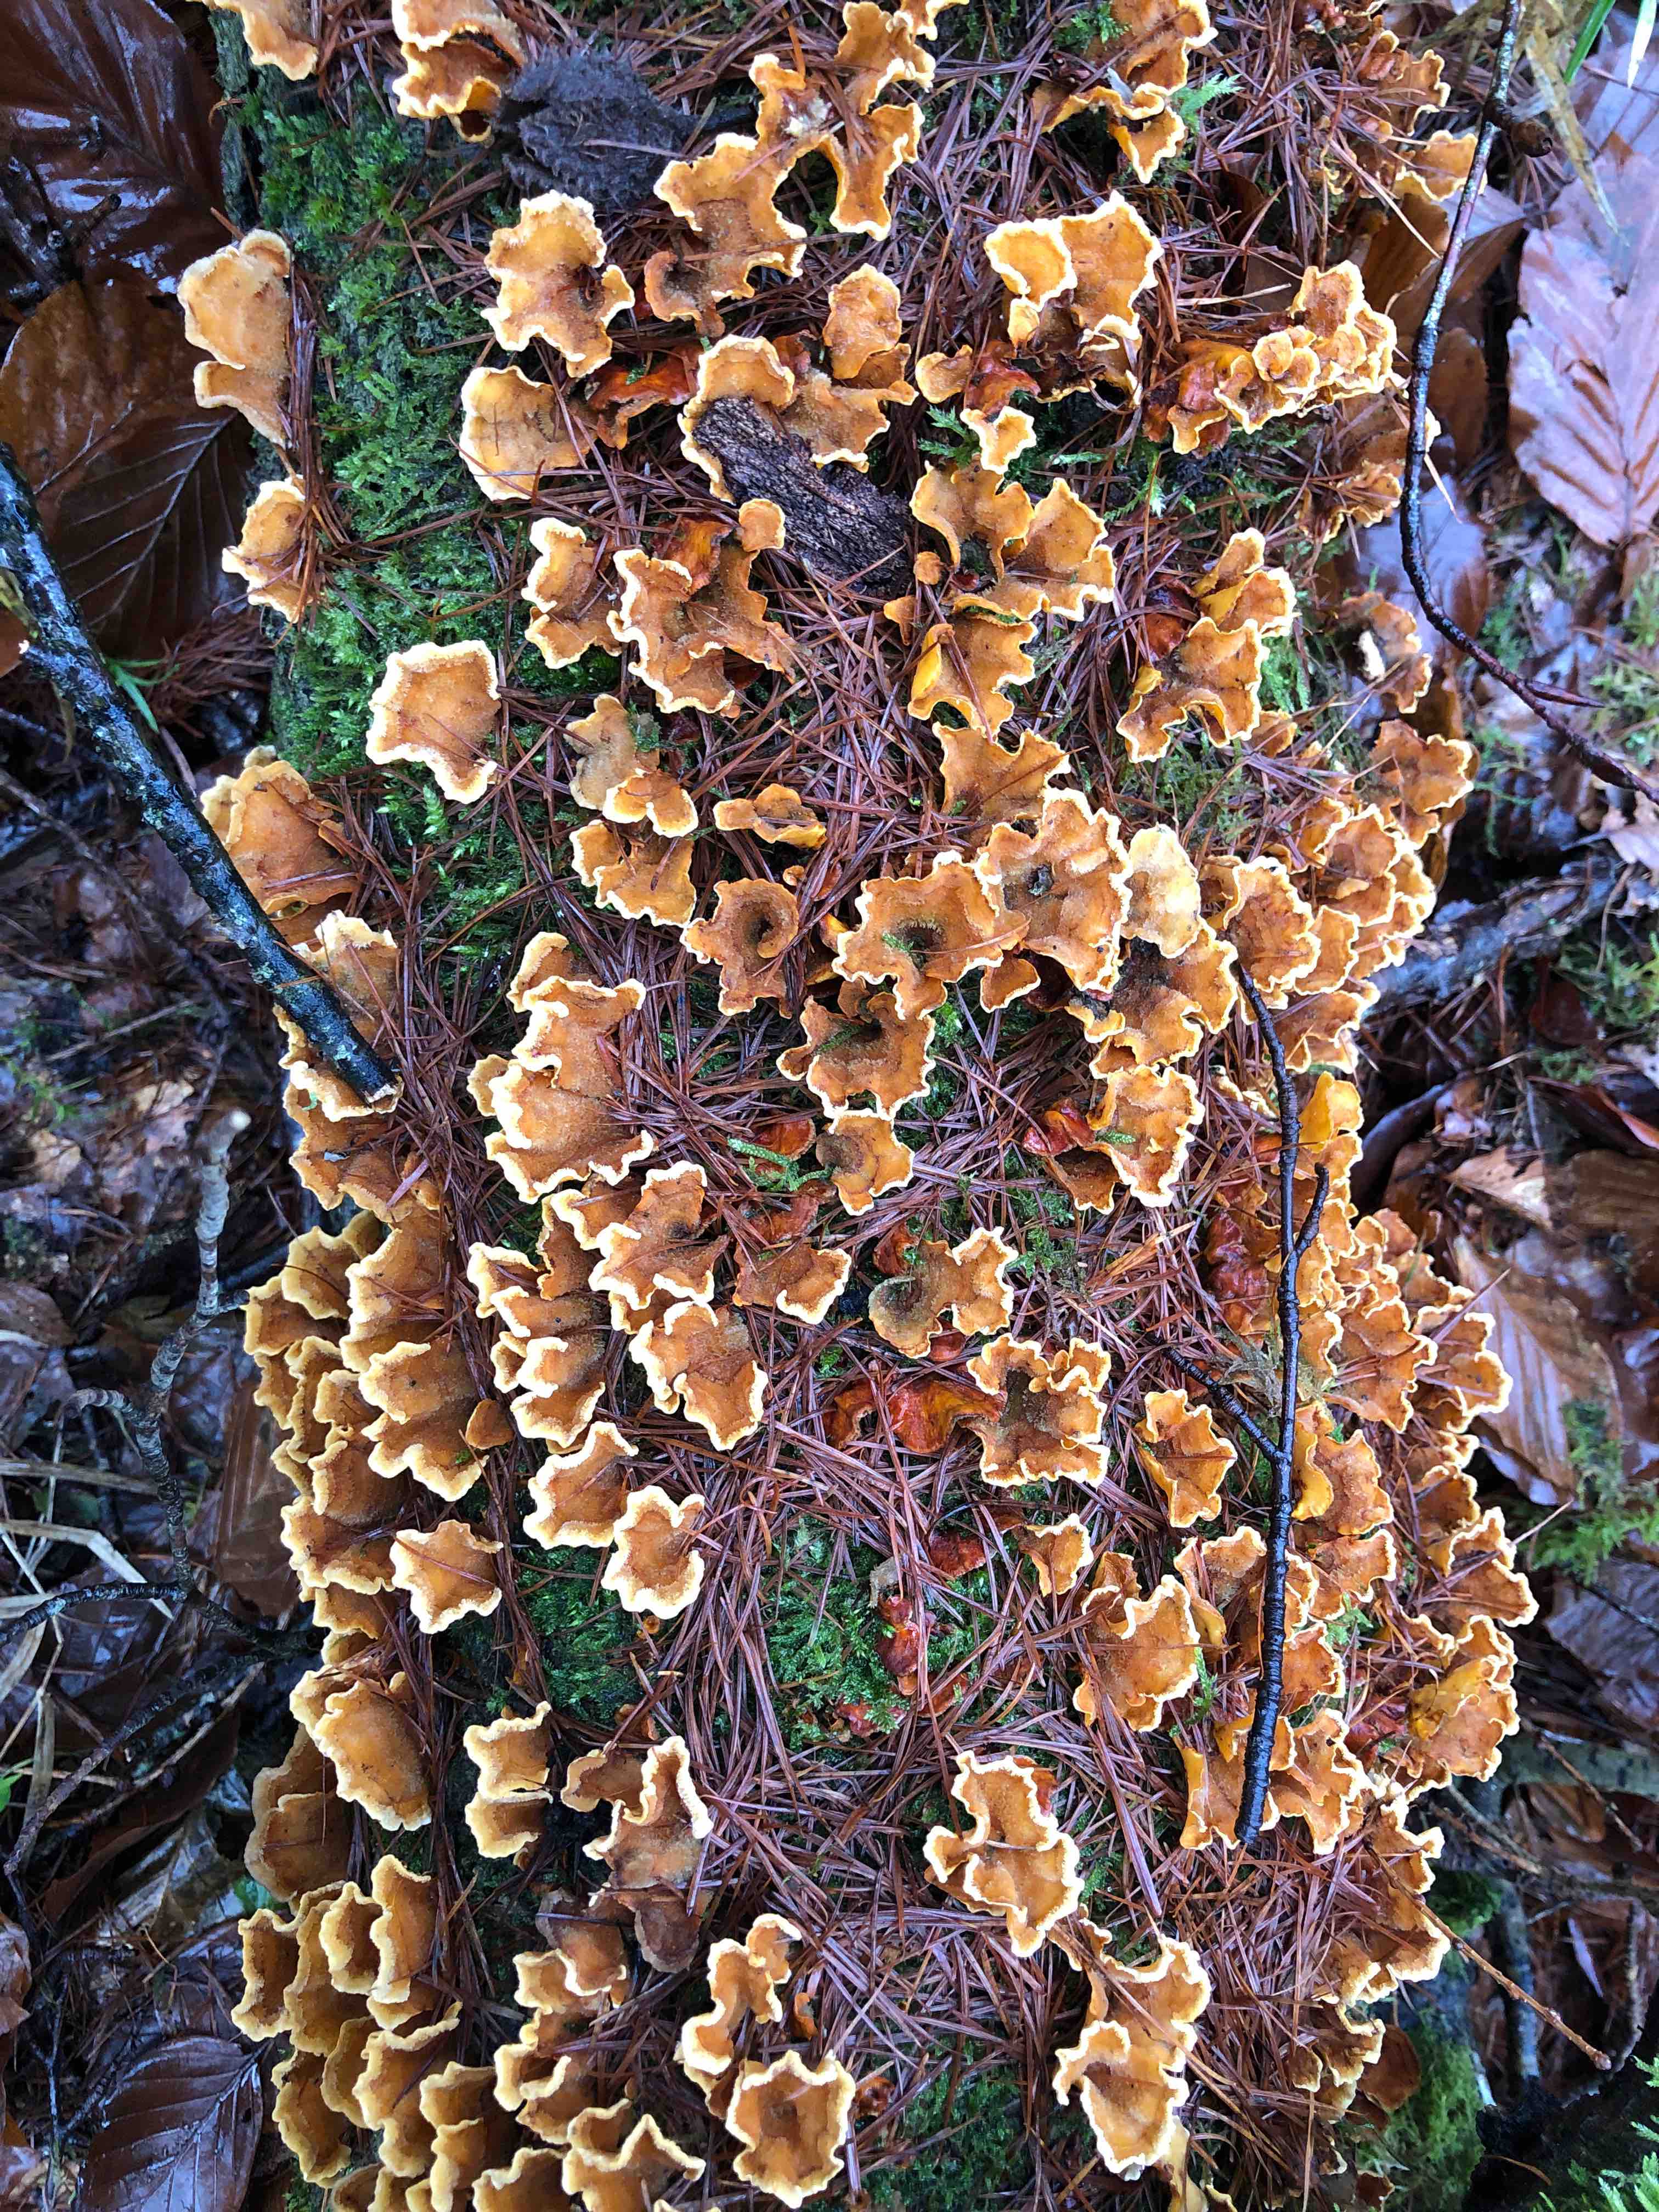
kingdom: Fungi
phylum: Basidiomycota
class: Agaricomycetes
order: Russulales
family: Stereaceae
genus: Stereum
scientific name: Stereum hirsutum
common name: håret lædersvamp
